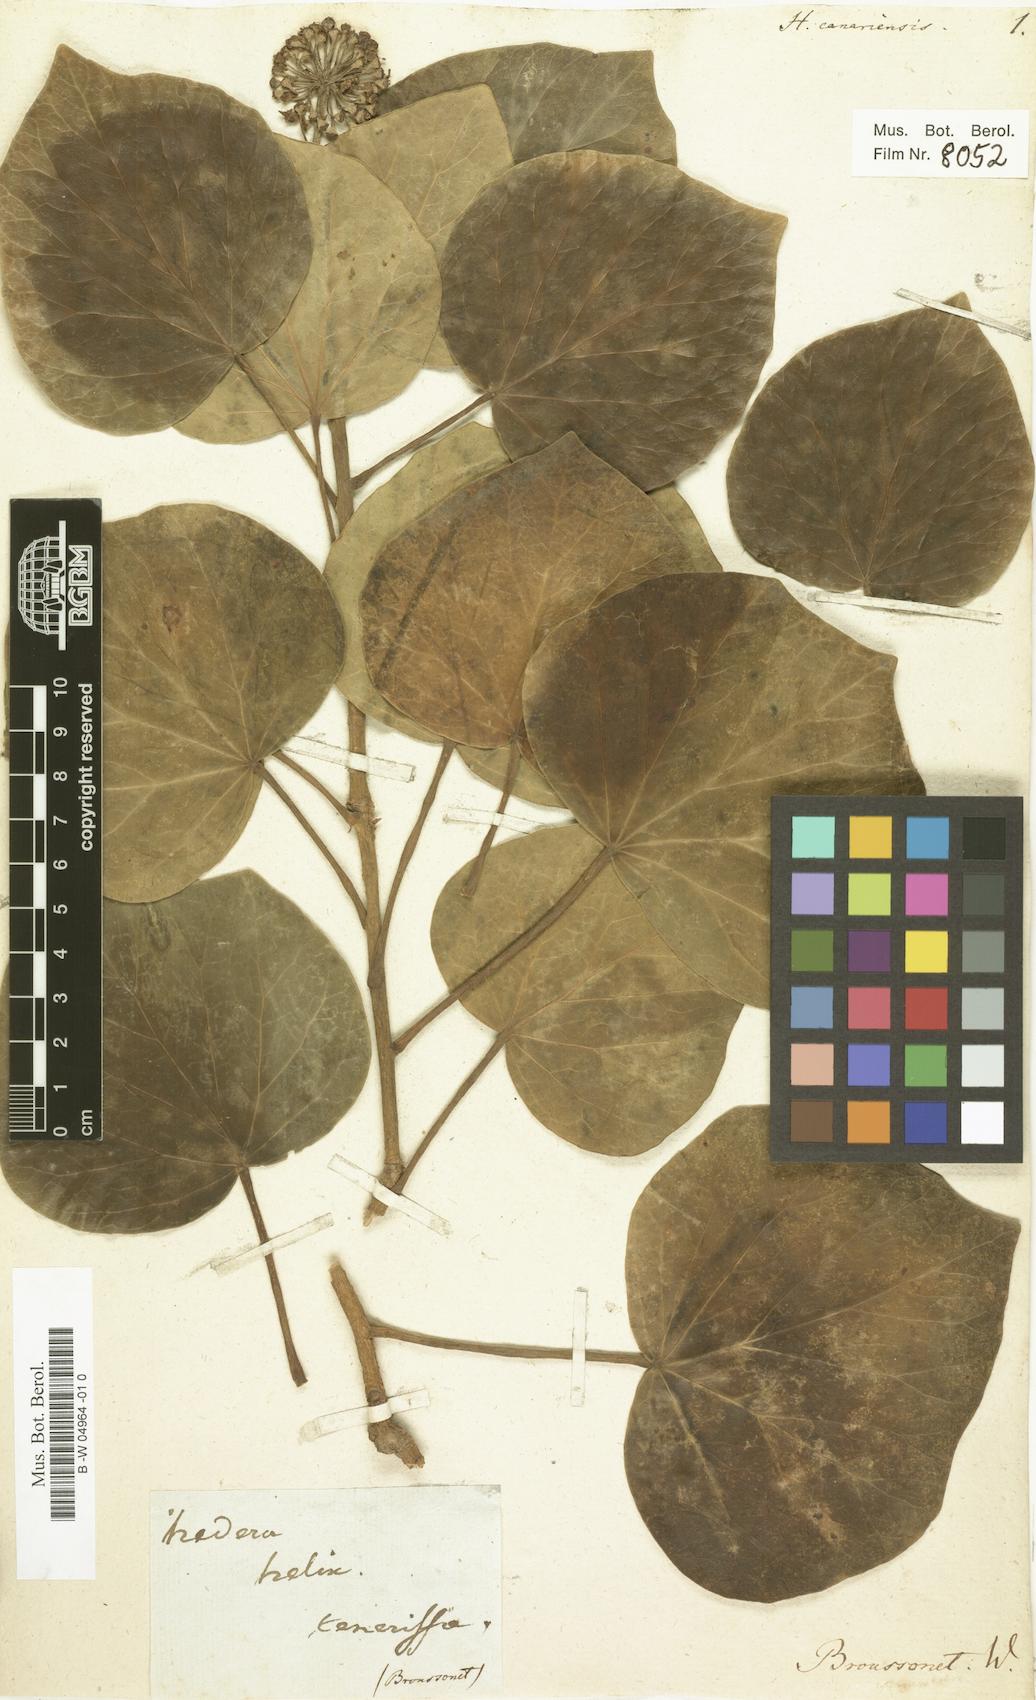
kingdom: Plantae
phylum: Tracheophyta
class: Magnoliopsida
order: Apiales
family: Araliaceae
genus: Hedera
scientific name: Hedera canariensis
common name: Madeira ivy
